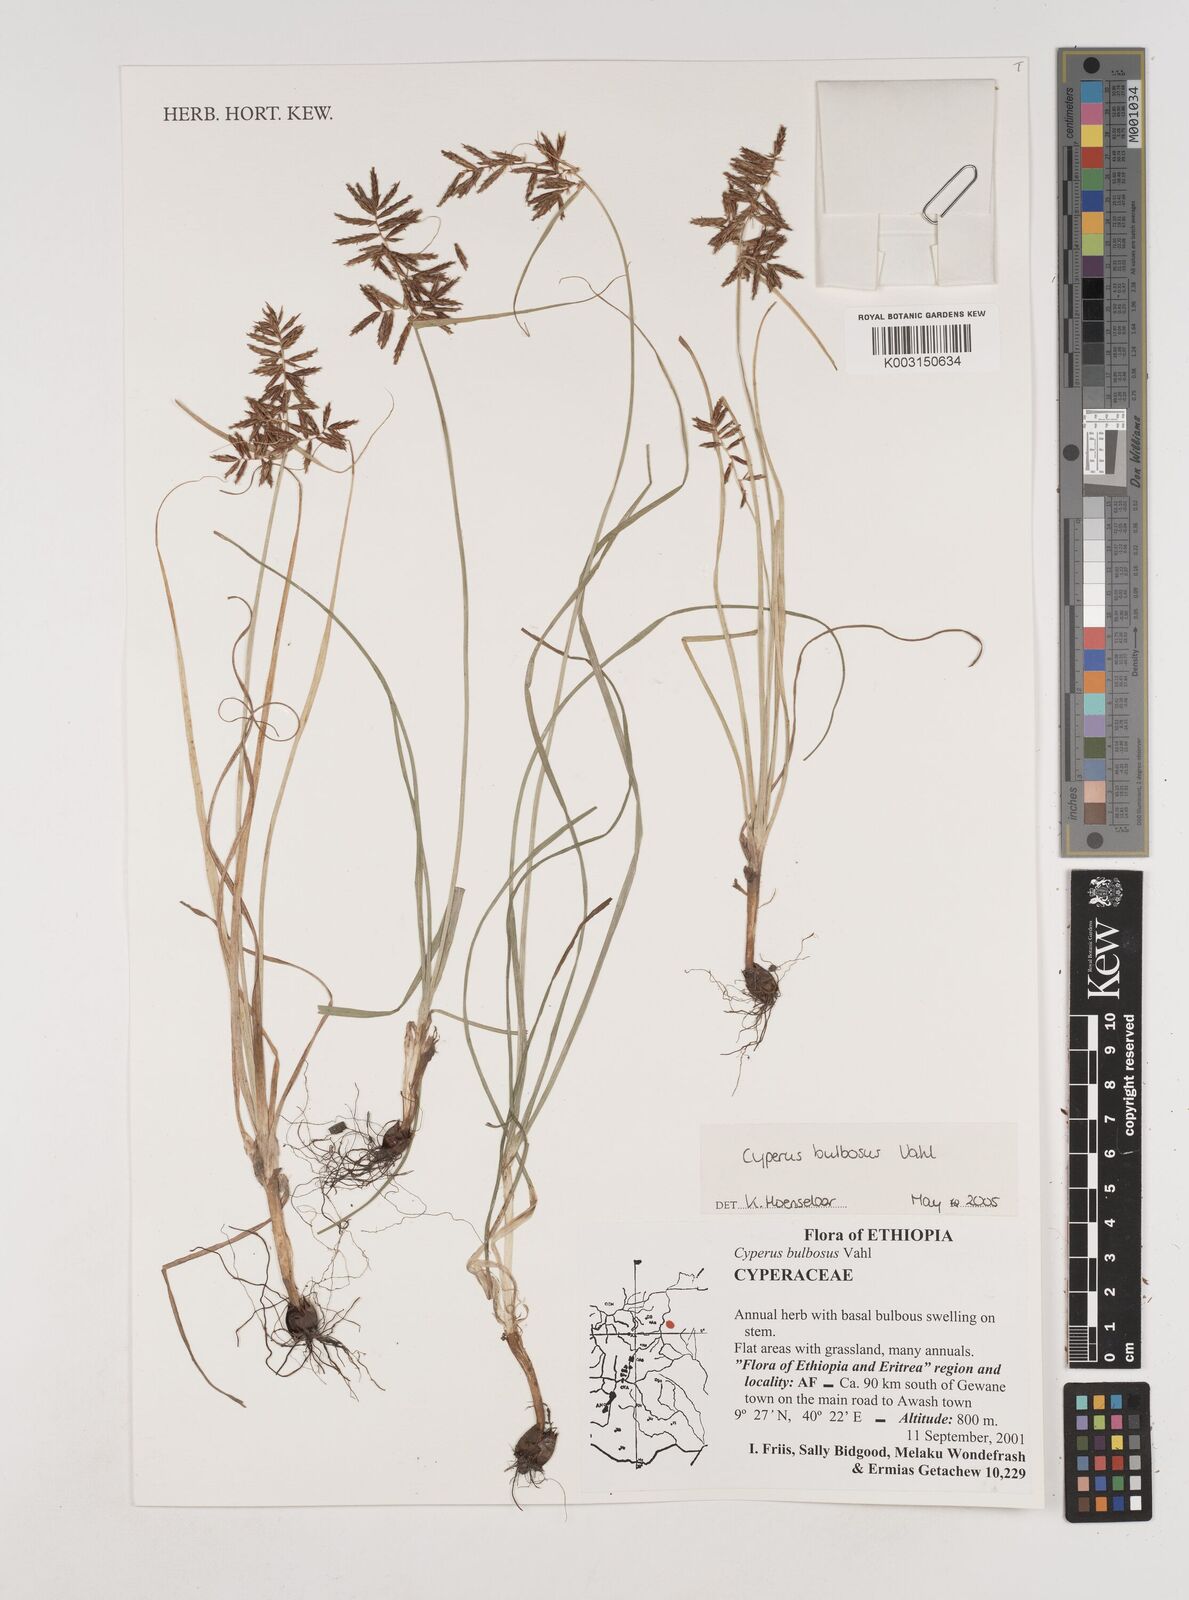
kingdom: Plantae
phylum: Tracheophyta
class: Liliopsida
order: Poales
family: Cyperaceae
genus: Cyperus
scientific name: Cyperus bulbosus
